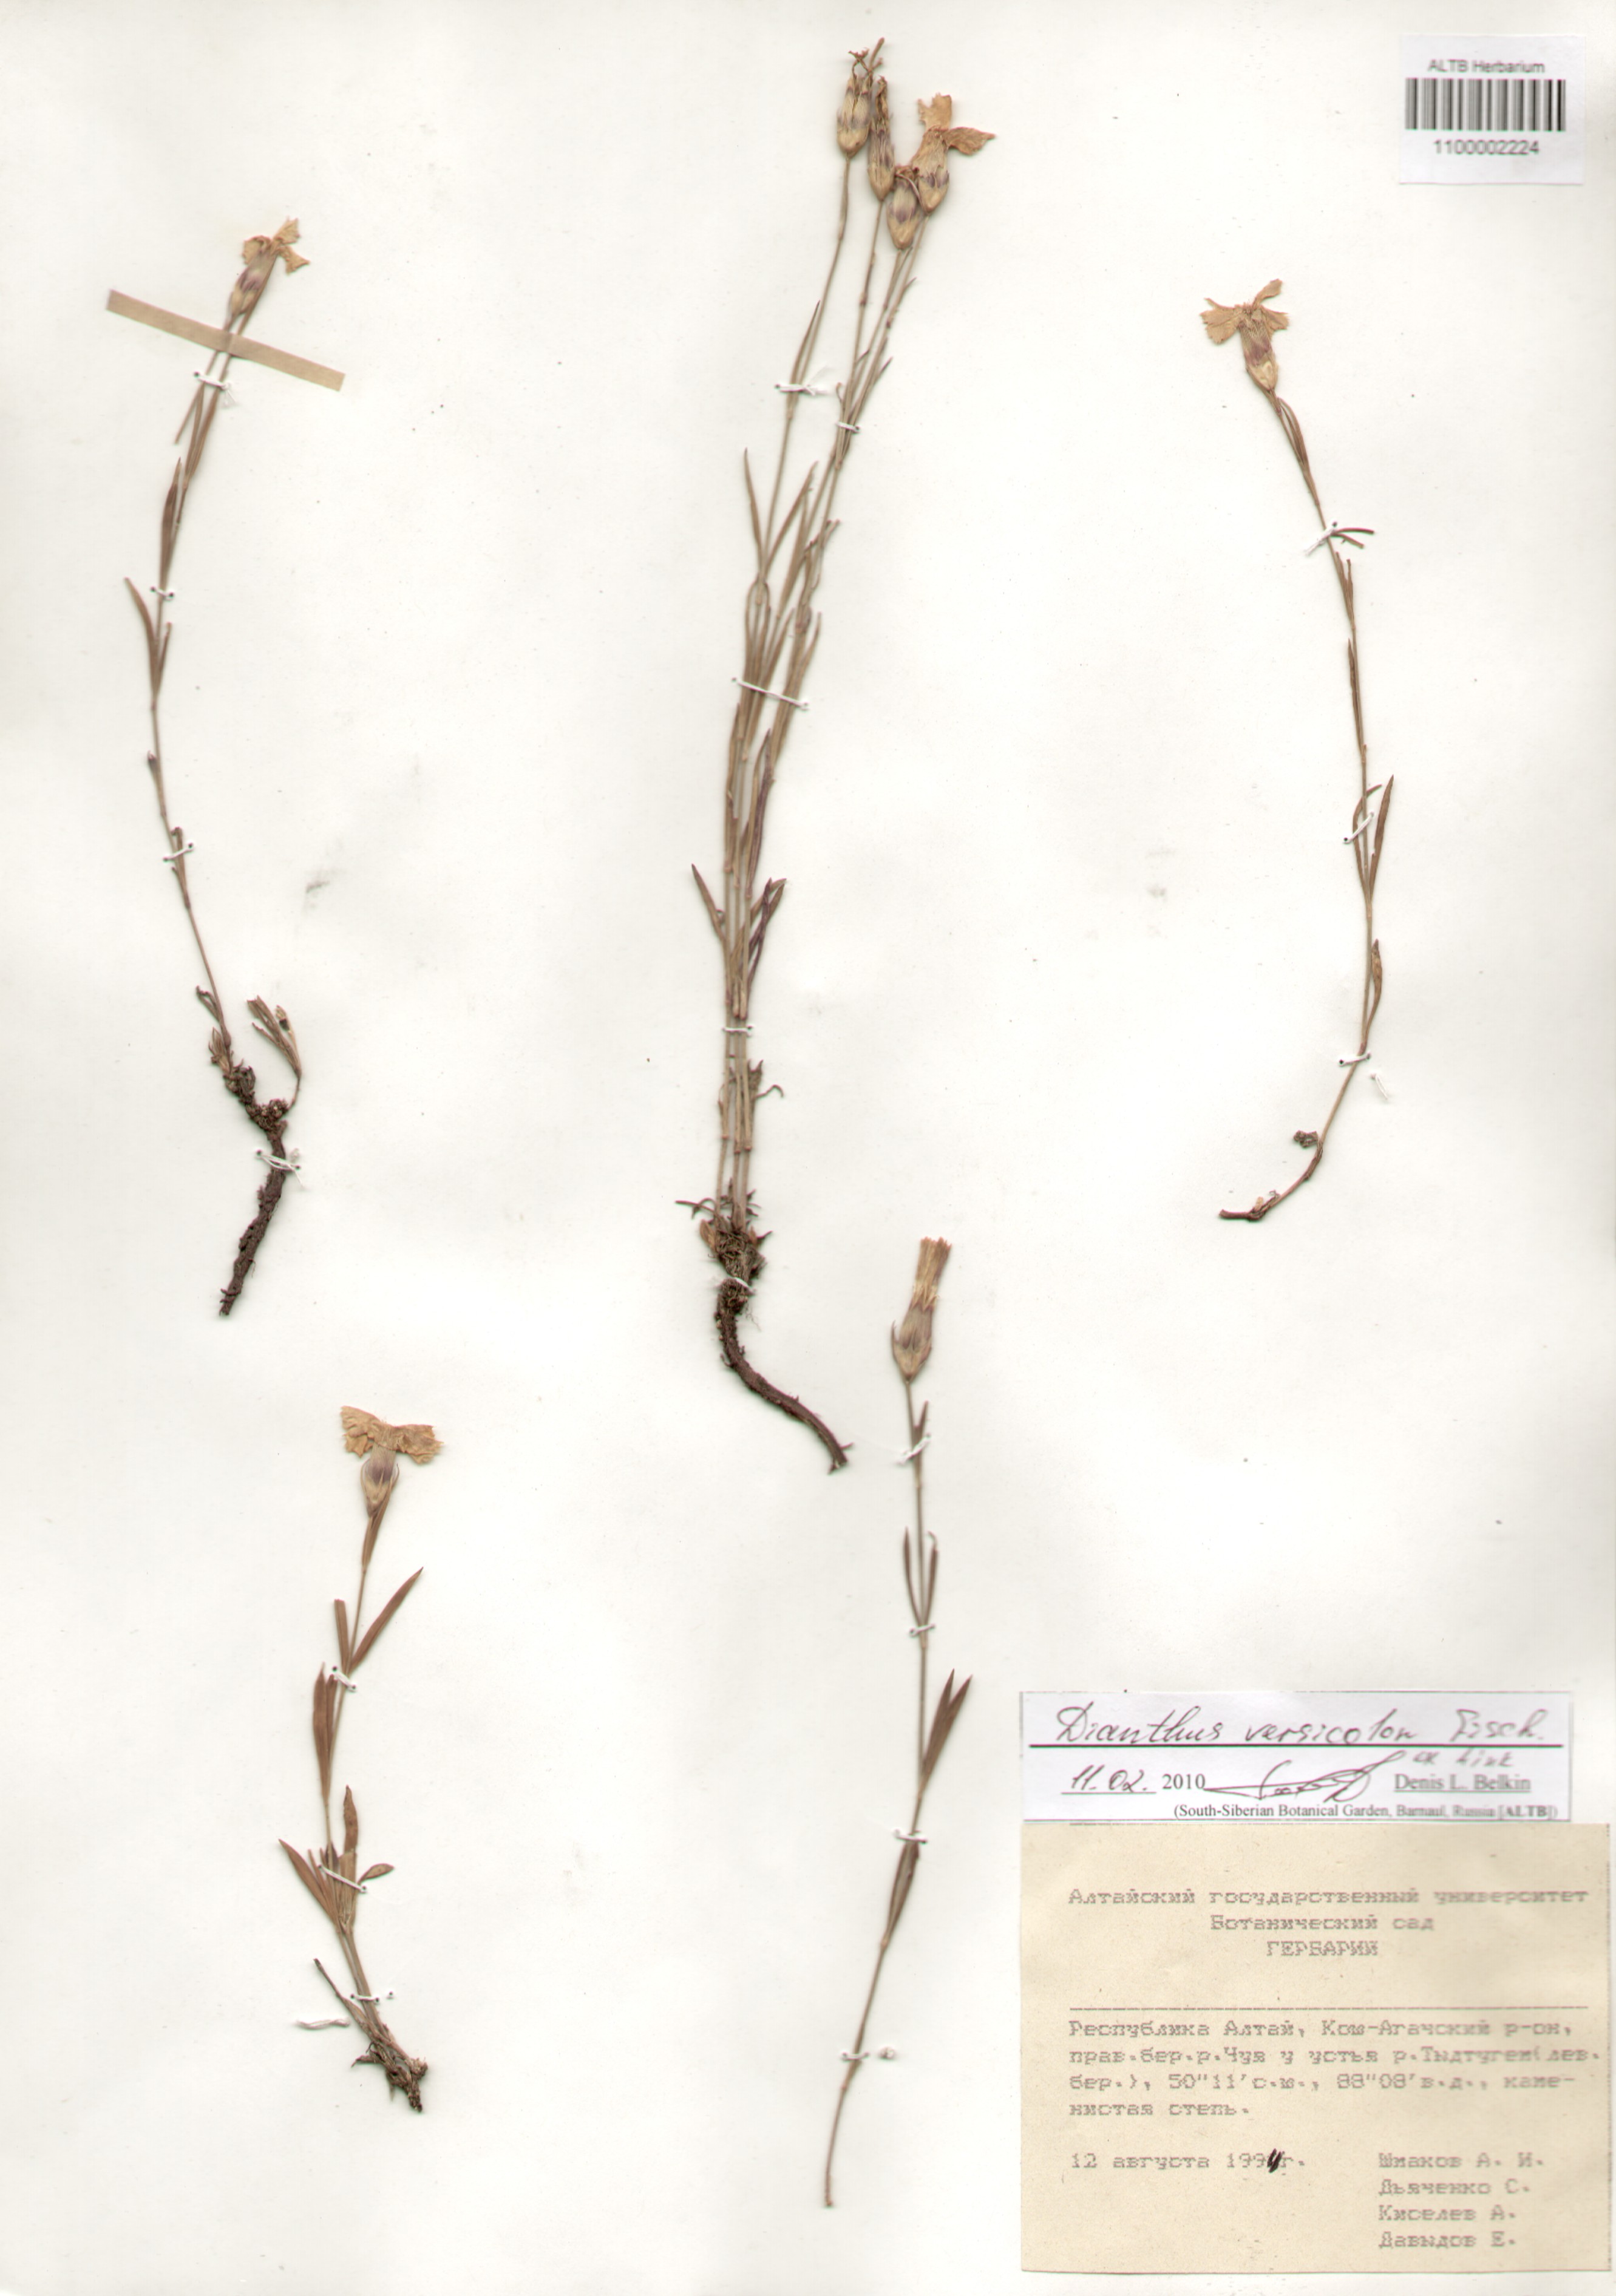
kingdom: Plantae
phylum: Tracheophyta
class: Magnoliopsida
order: Caryophyllales
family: Caryophyllaceae
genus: Dianthus
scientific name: Dianthus chinensis
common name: Rainbow pink
